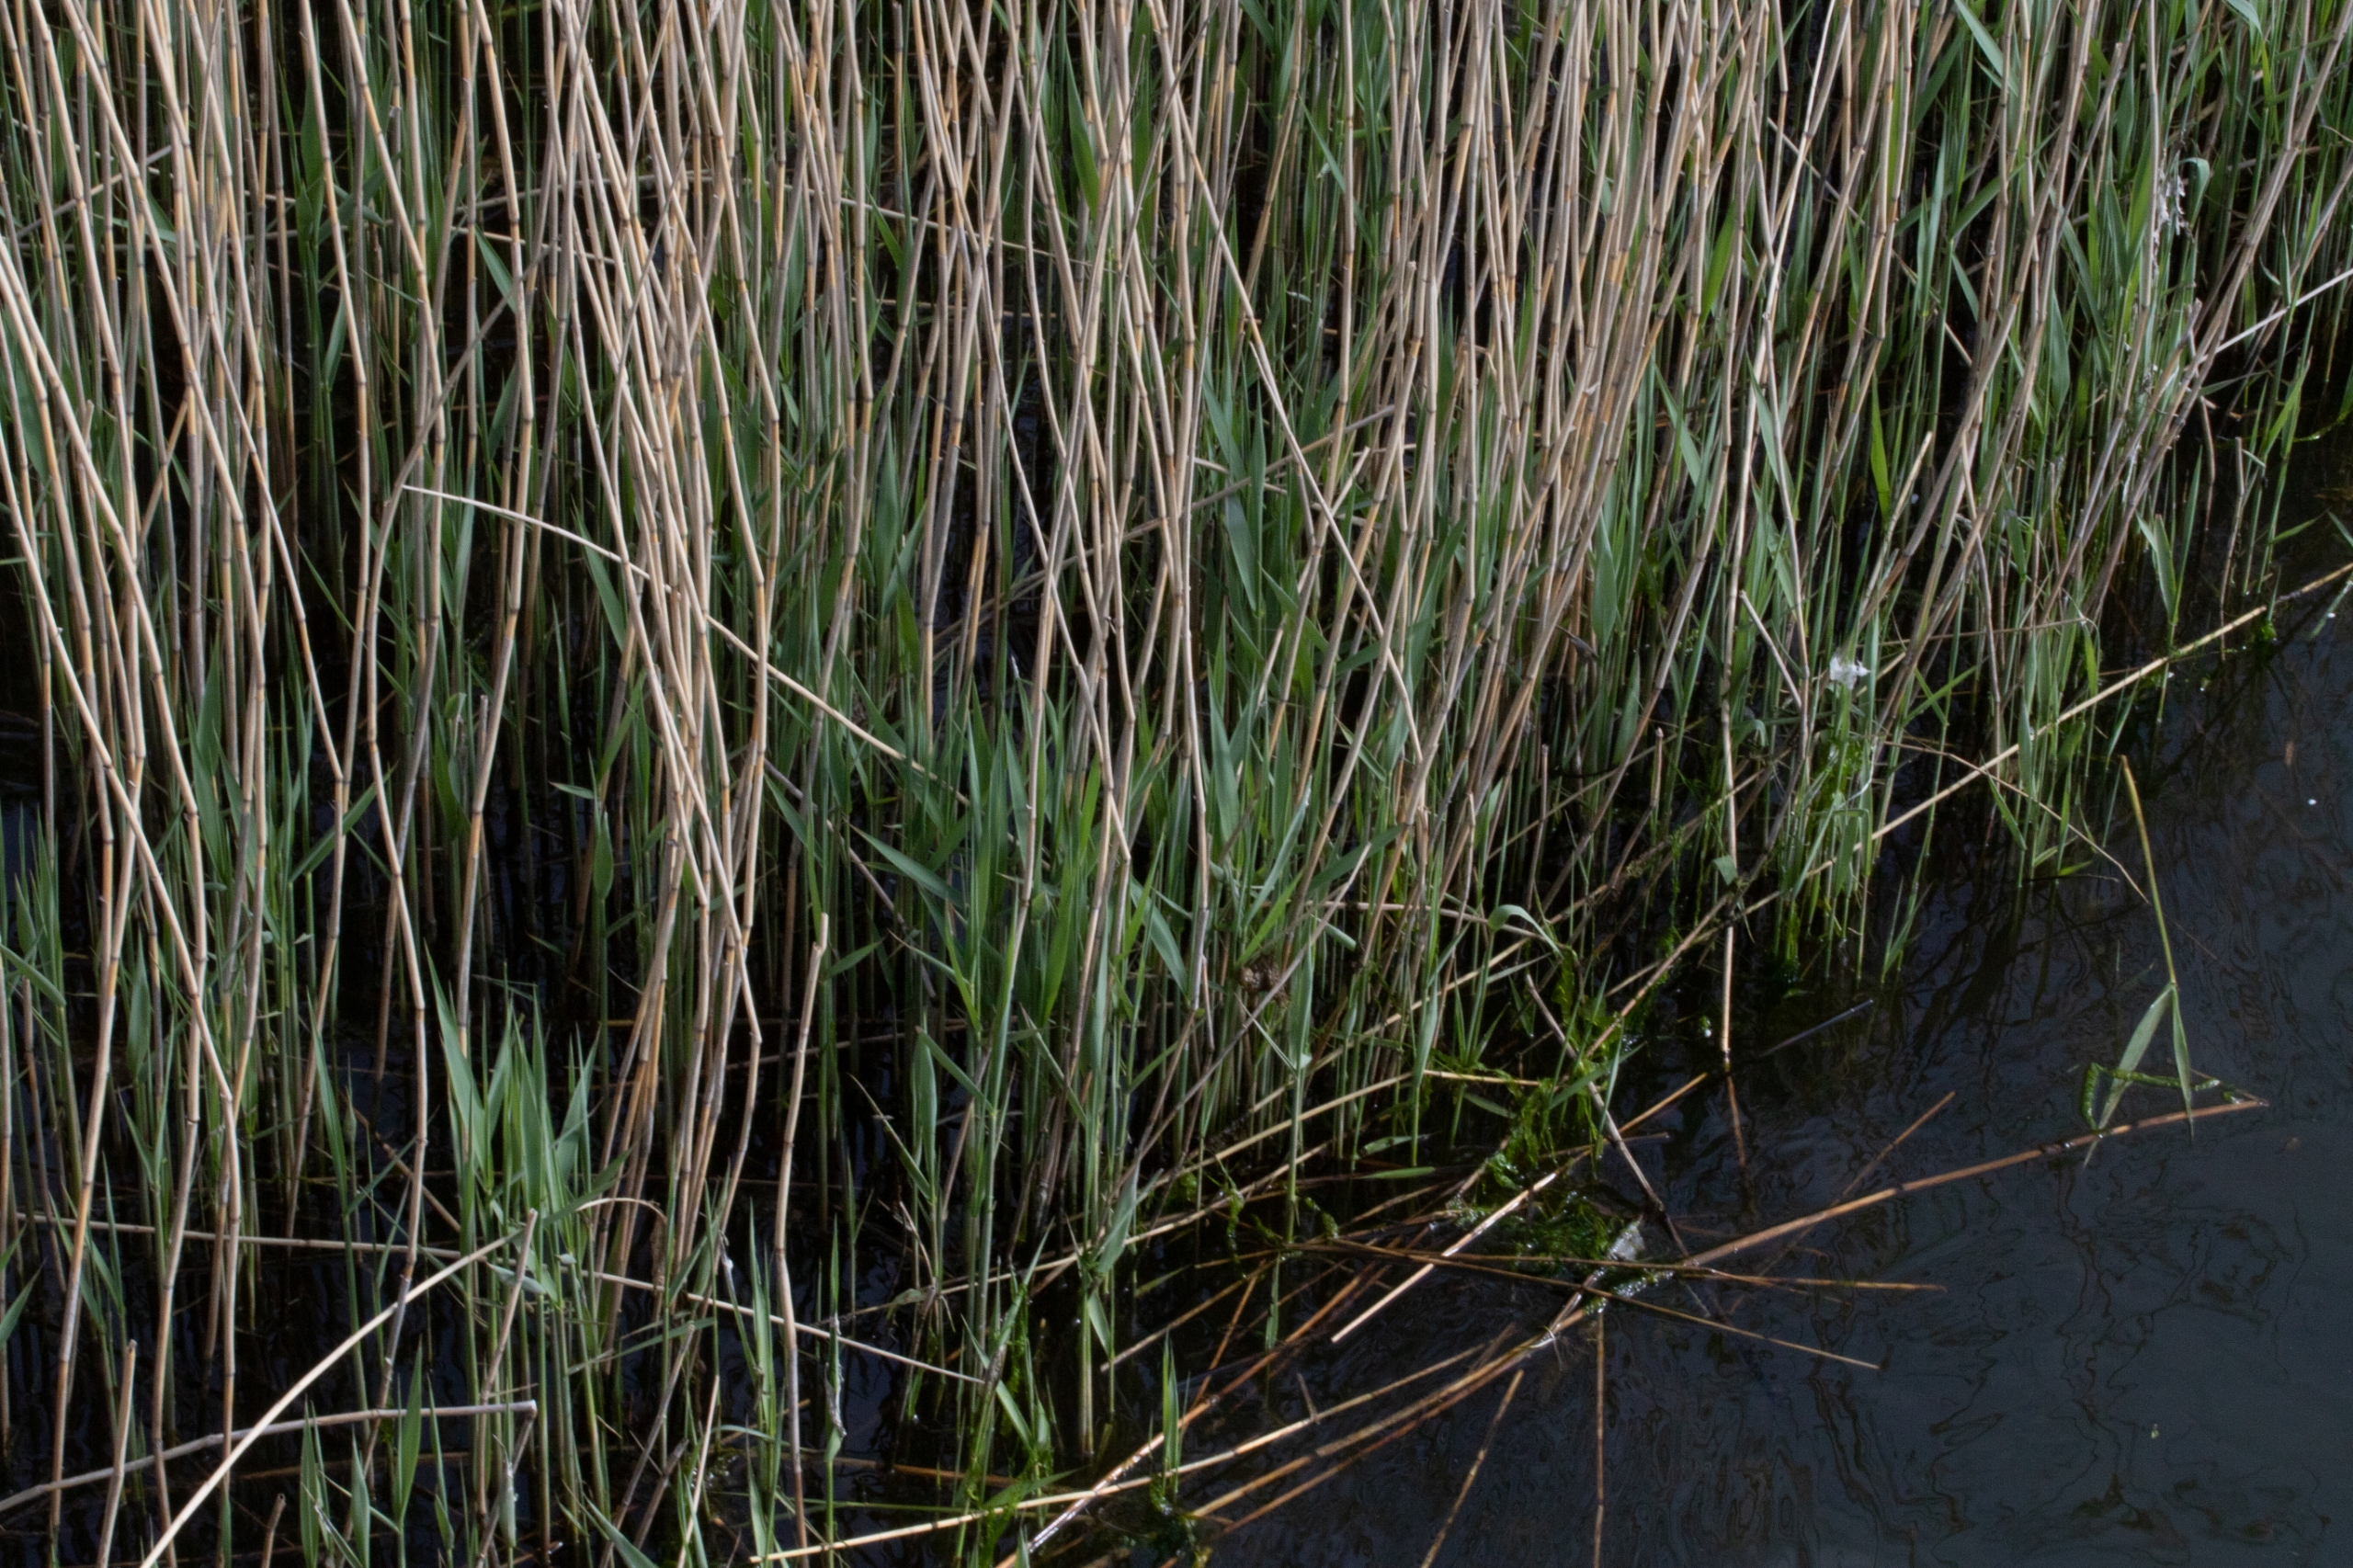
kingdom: Plantae
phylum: Tracheophyta
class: Liliopsida
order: Poales
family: Poaceae
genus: Phragmites
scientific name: Phragmites australis
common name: Tagrør
